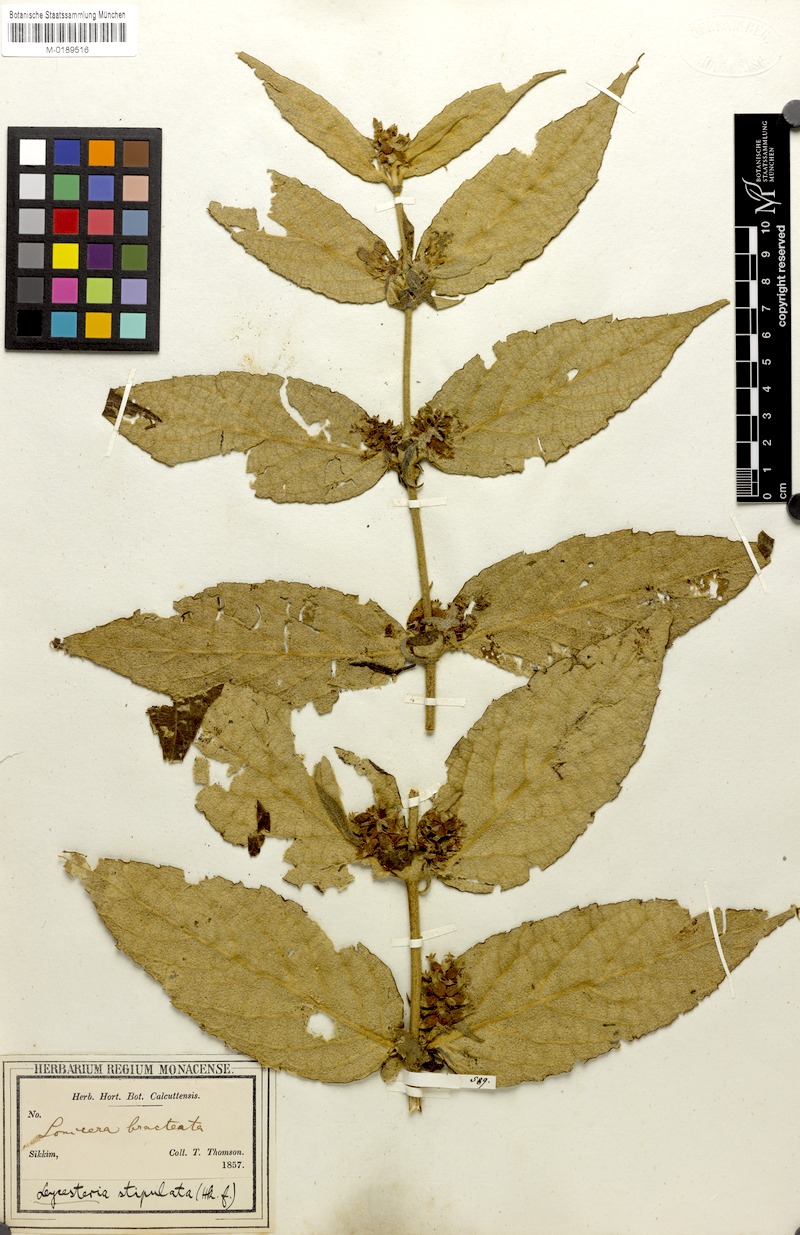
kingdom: Plantae
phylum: Tracheophyta
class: Magnoliopsida
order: Dipsacales
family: Caprifoliaceae
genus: Leycesteria
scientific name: Leycesteria stipulata
